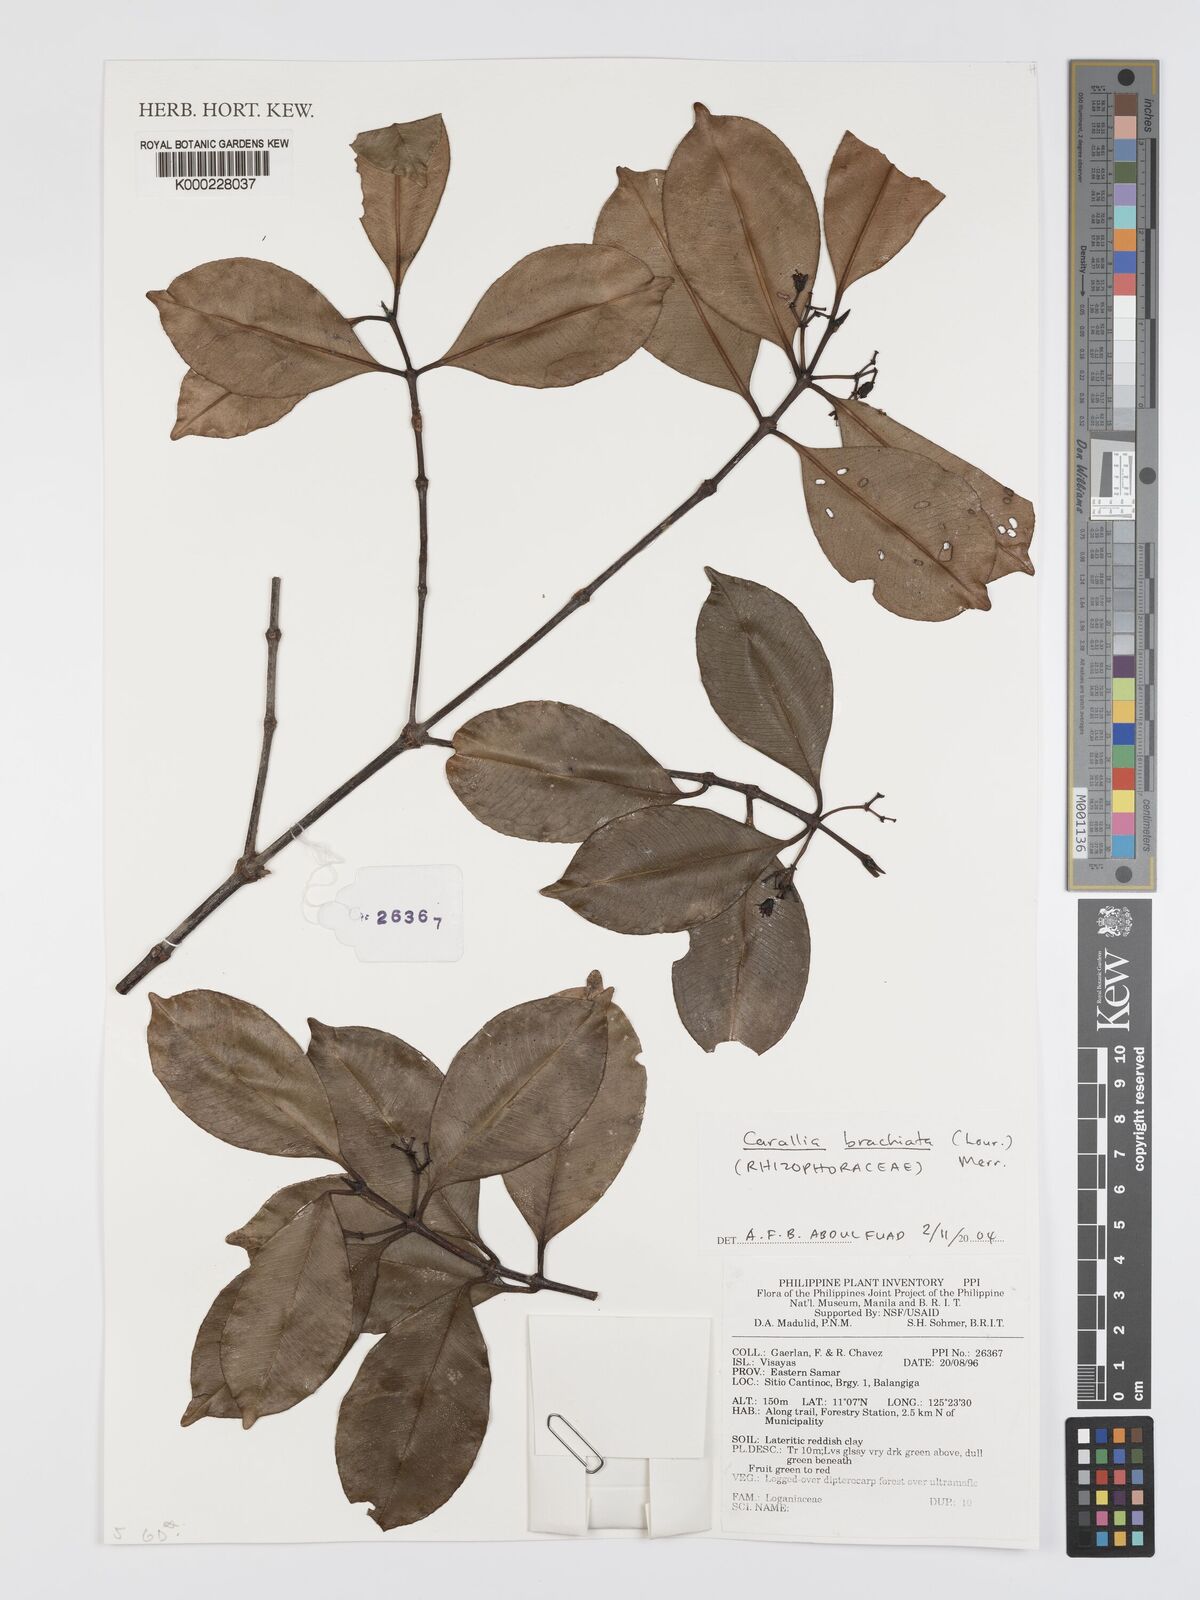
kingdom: Plantae
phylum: Tracheophyta
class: Magnoliopsida
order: Malpighiales
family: Rhizophoraceae
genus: Carallia
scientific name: Carallia brachiata
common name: Carallawood
